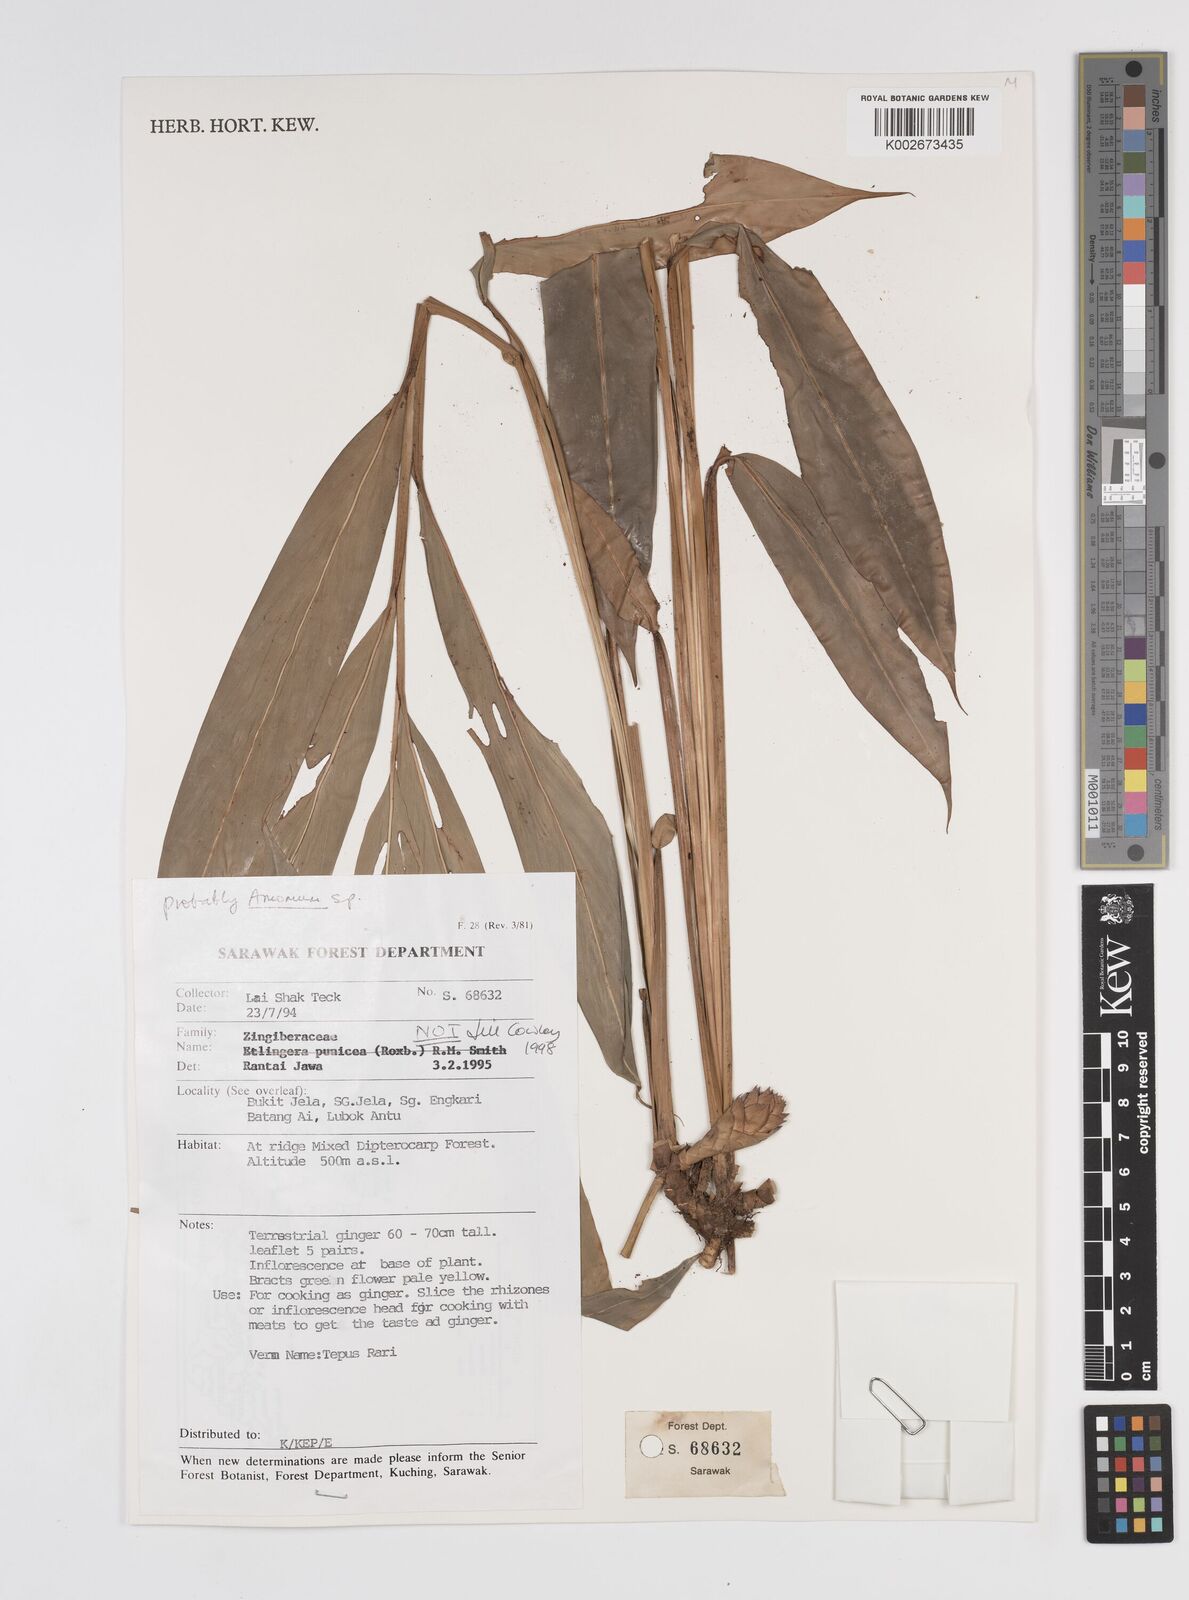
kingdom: Plantae
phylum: Tracheophyta
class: Liliopsida
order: Zingiberales
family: Zingiberaceae
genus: Epiamomum
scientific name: Epiamomum hansenii
